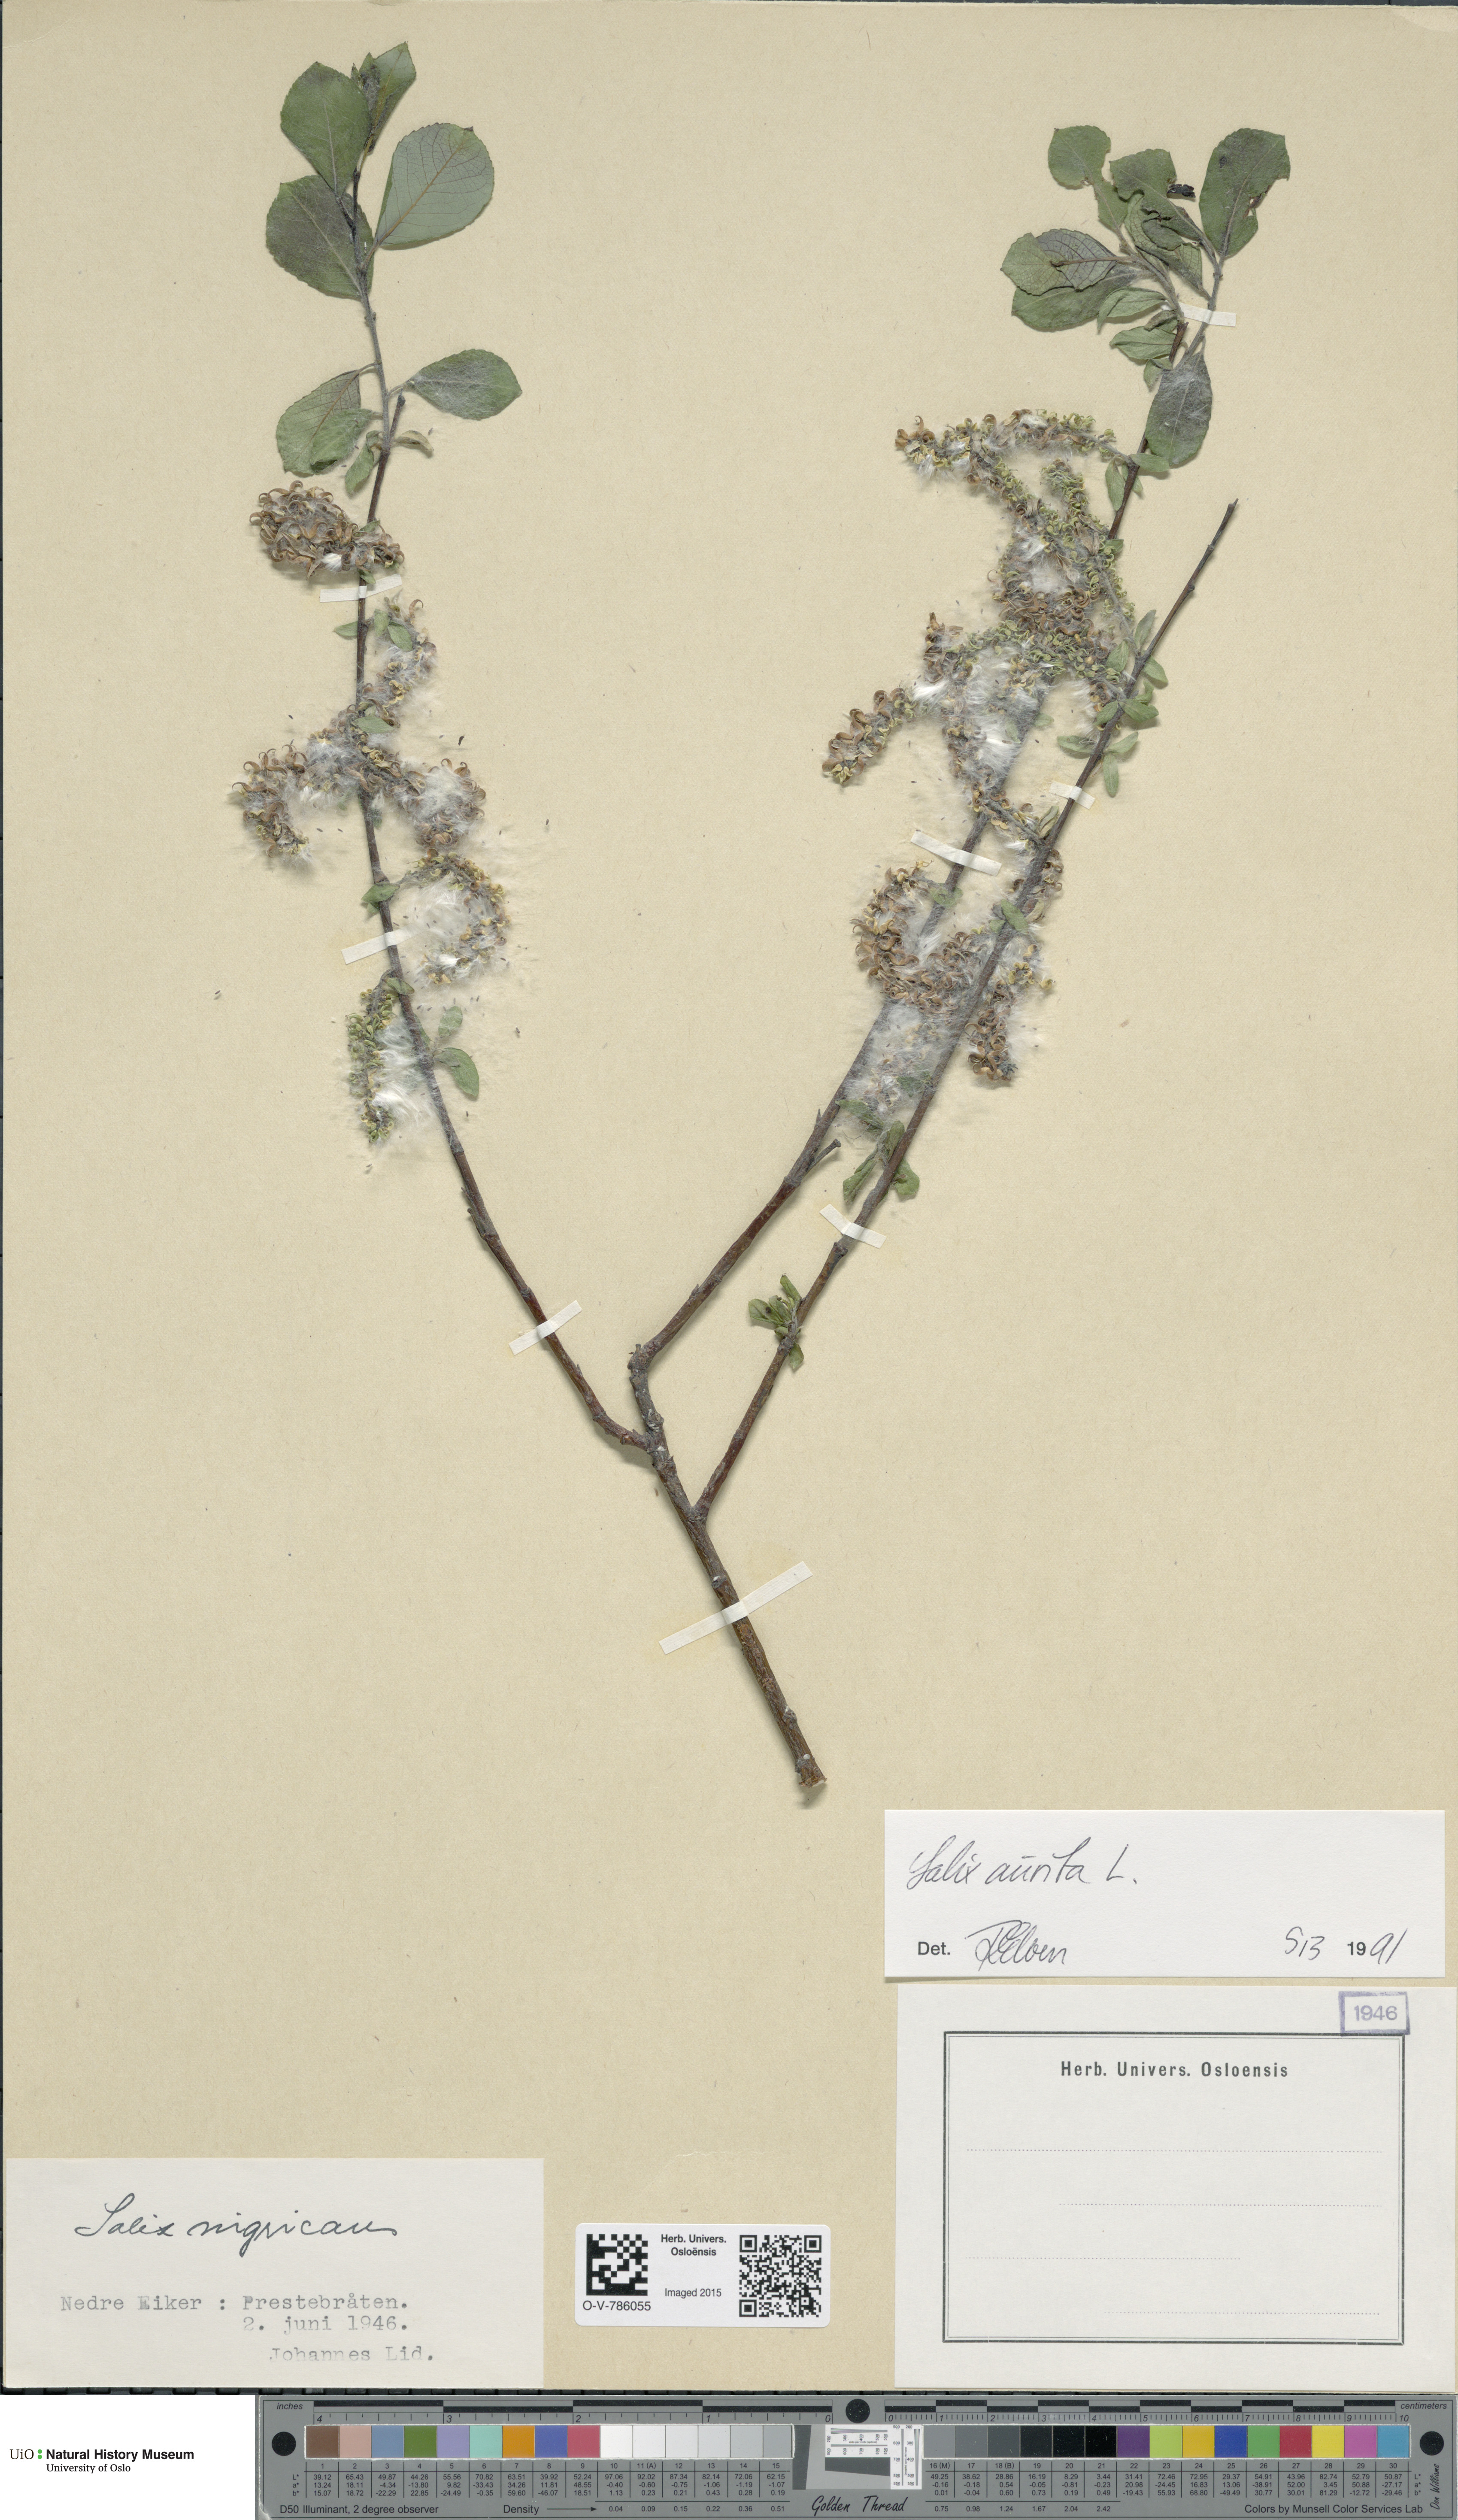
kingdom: Plantae
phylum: Tracheophyta
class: Magnoliopsida
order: Malpighiales
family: Salicaceae
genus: Salix
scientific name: Salix aurita
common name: Eared willow
